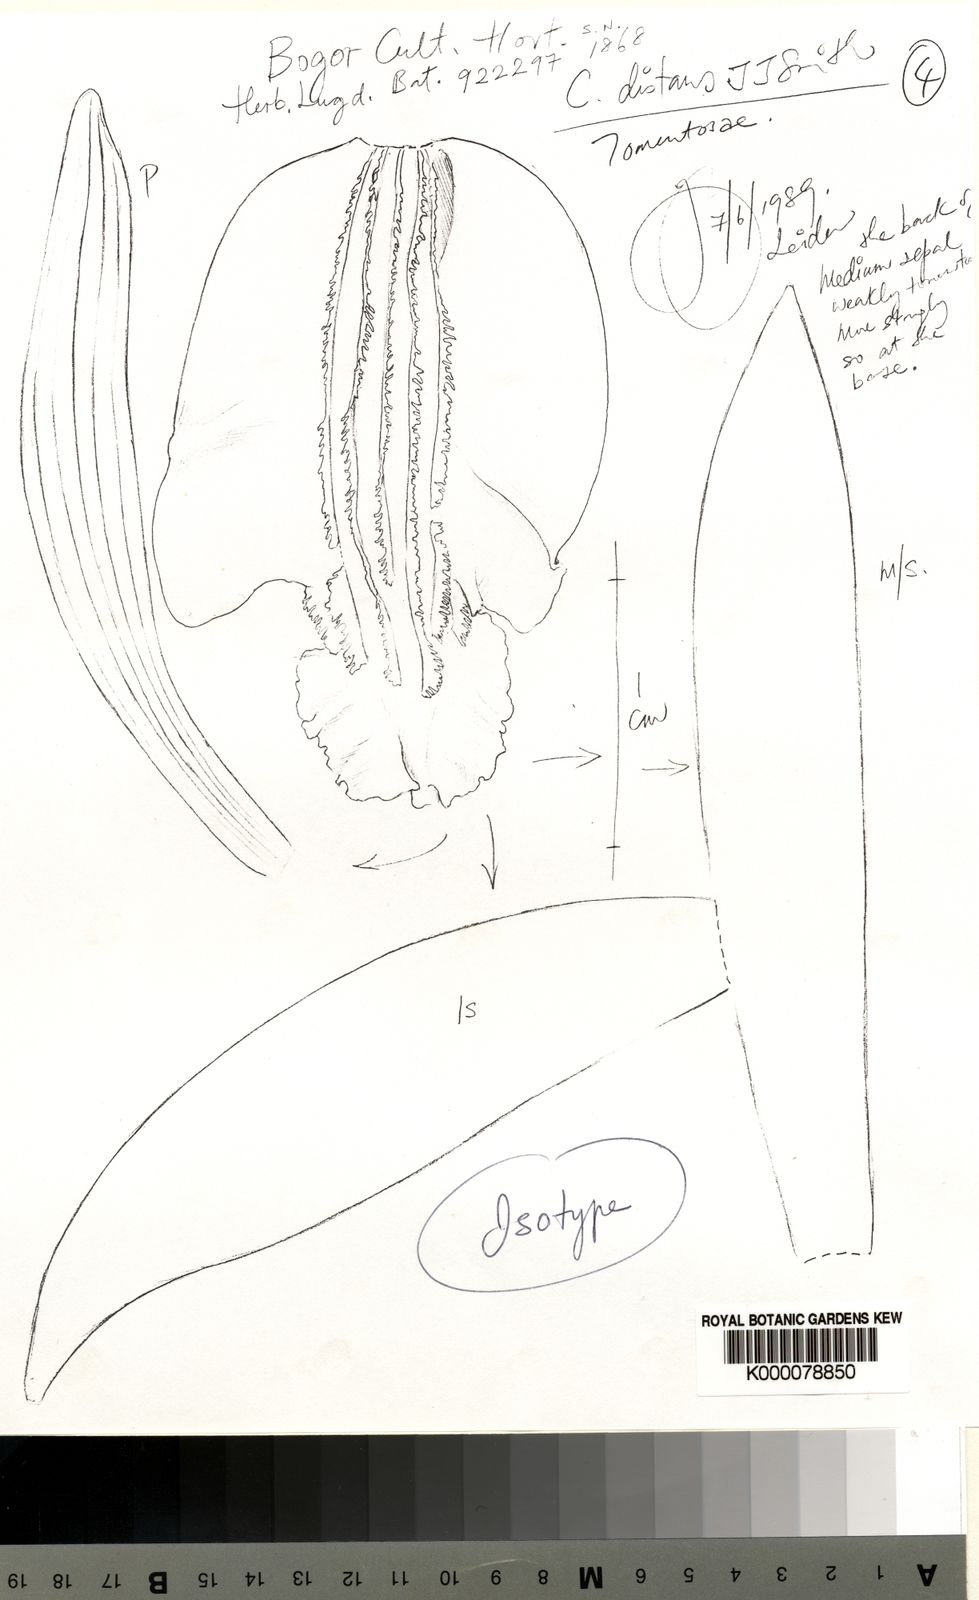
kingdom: Plantae
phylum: Tracheophyta
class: Liliopsida
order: Asparagales
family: Orchidaceae
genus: Coelogyne
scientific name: Coelogyne distans
